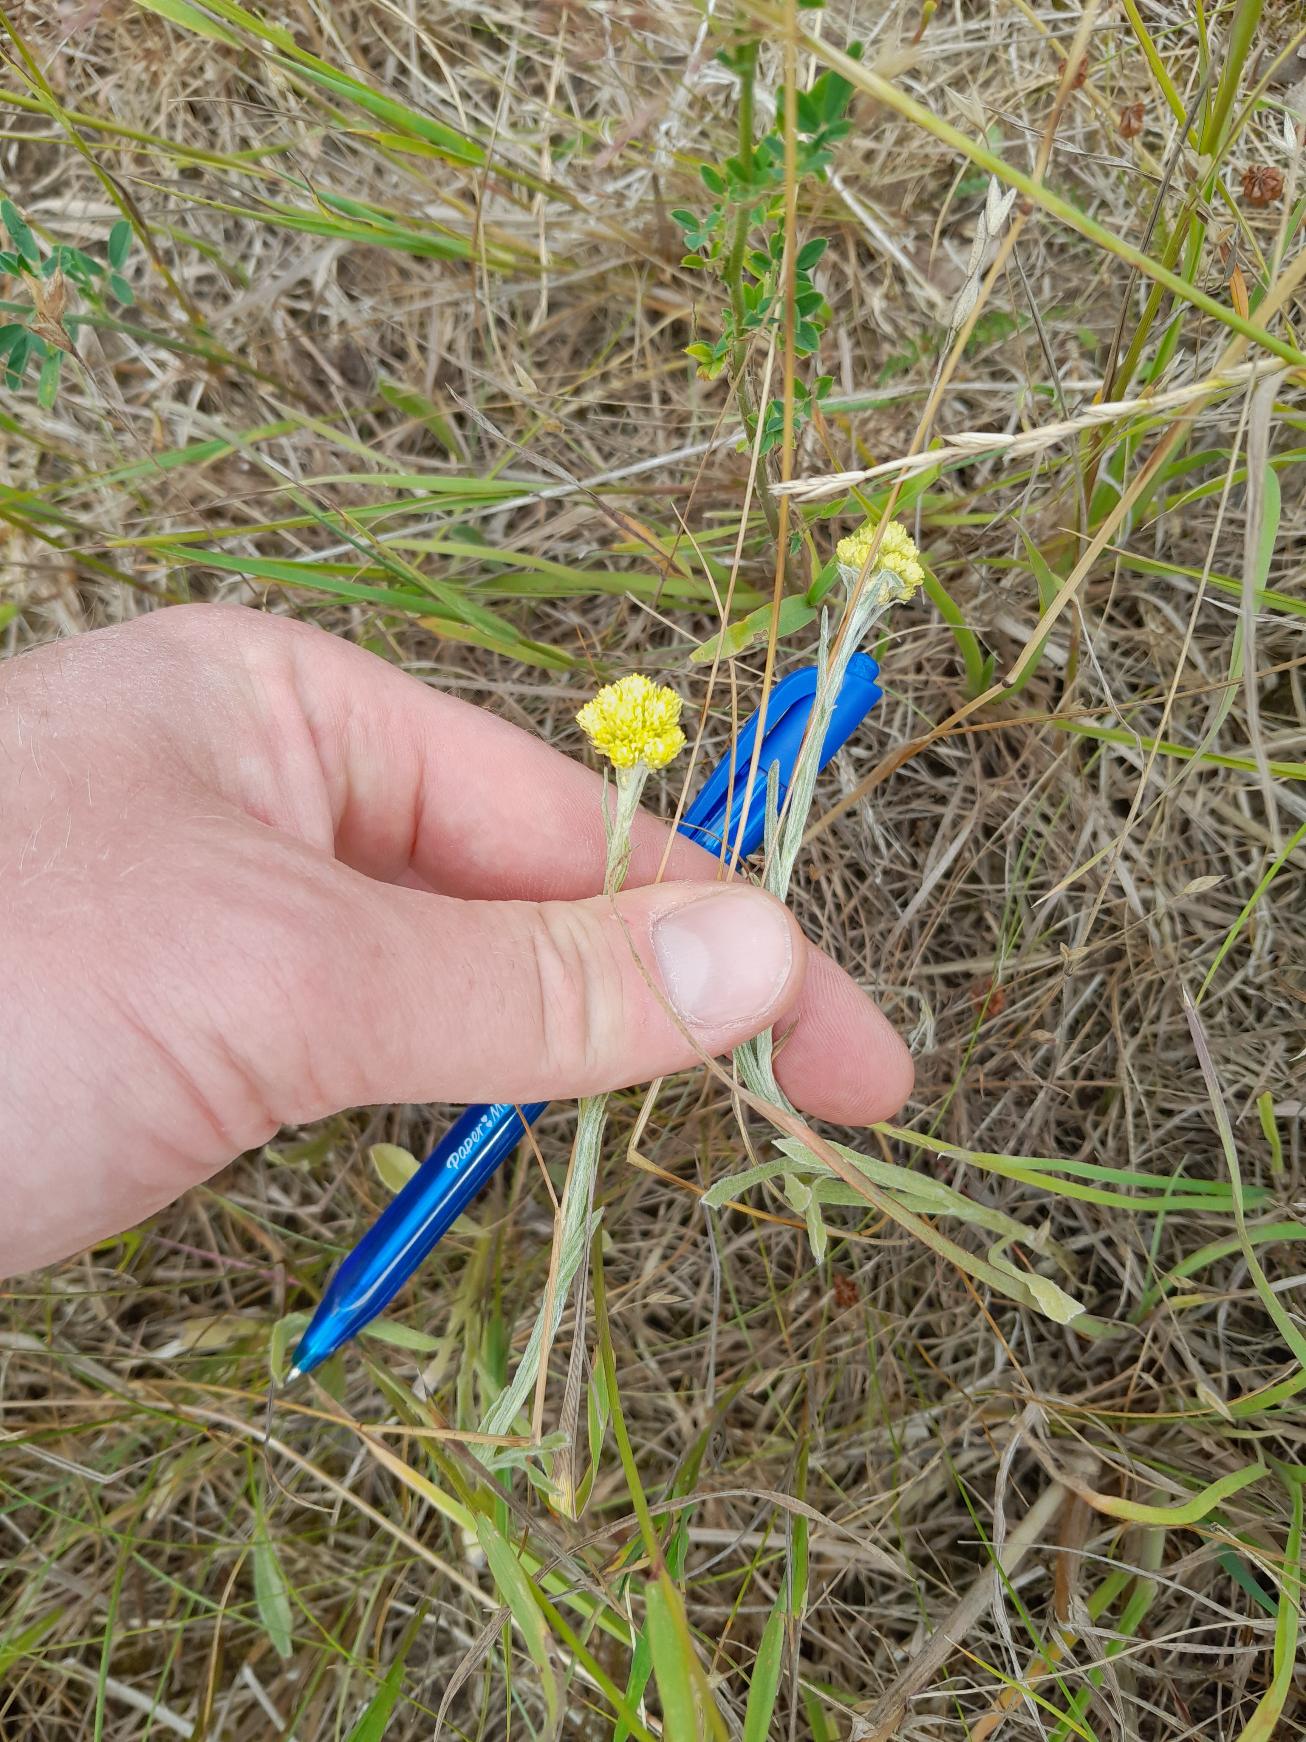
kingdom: Plantae
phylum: Tracheophyta
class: Magnoliopsida
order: Asterales
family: Asteraceae
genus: Helichrysum
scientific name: Helichrysum arenarium
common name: Gul evighedsblomst
